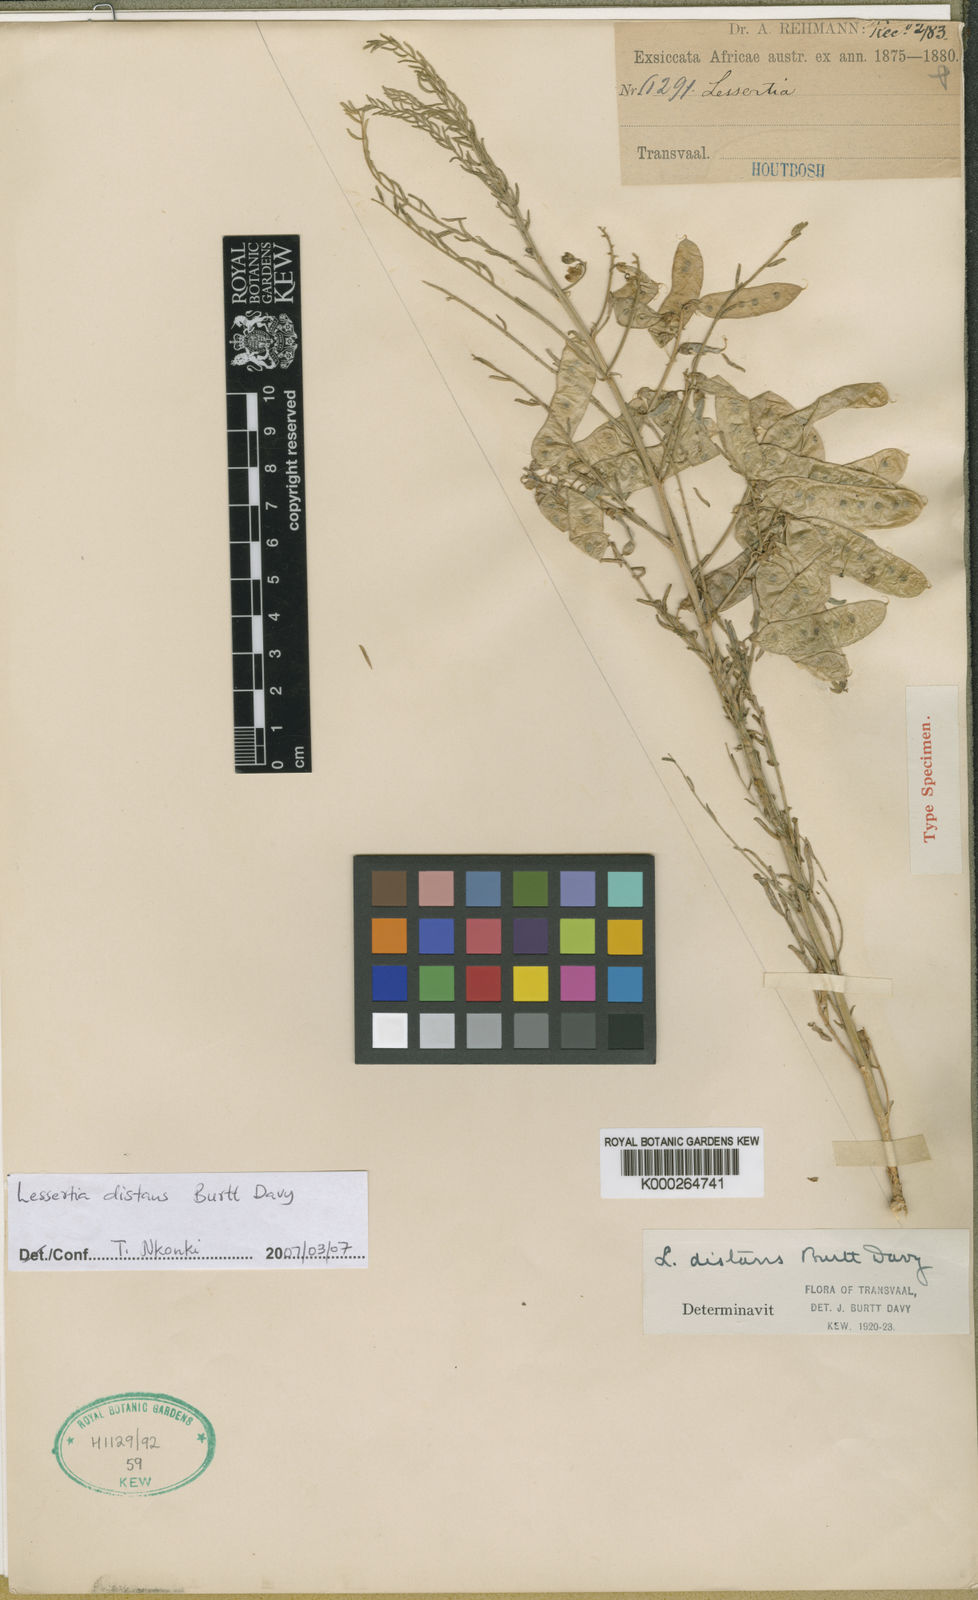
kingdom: Plantae
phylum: Tracheophyta
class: Magnoliopsida
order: Fabales
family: Fabaceae
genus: Lessertia
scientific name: Lessertia distans
